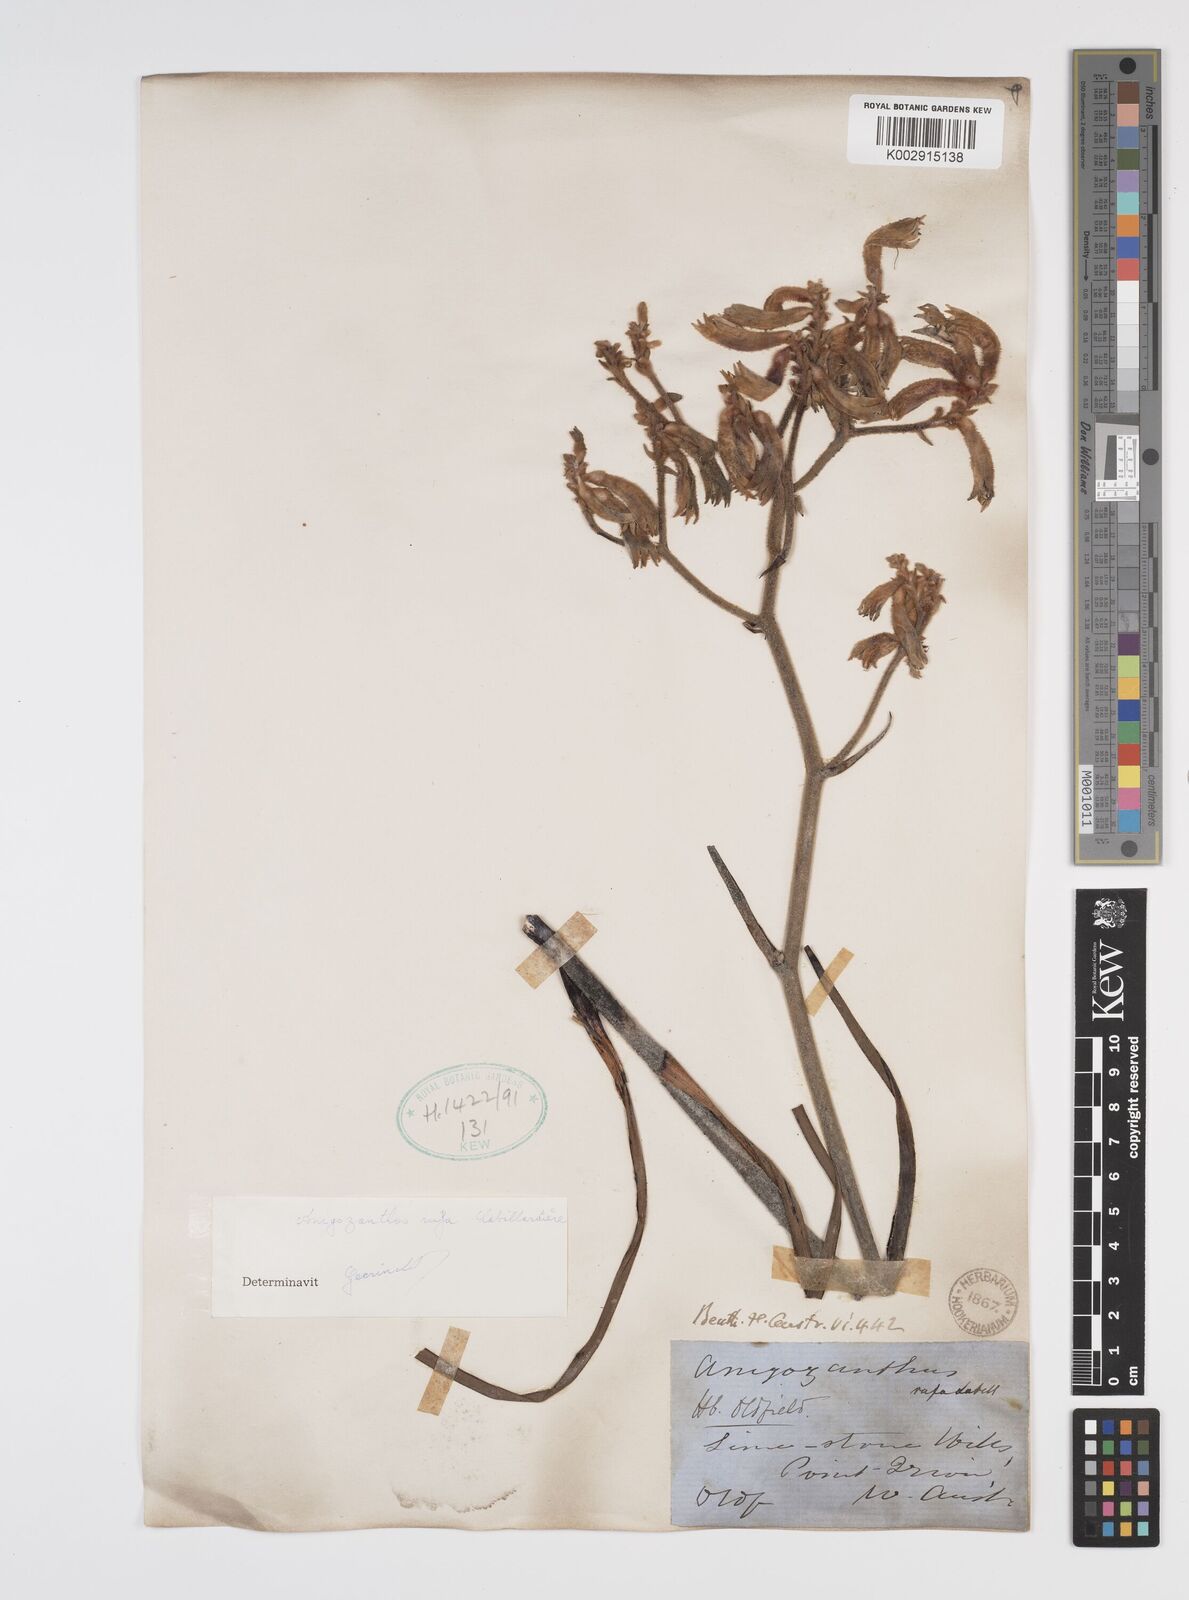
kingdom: Plantae
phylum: Tracheophyta
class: Liliopsida
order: Commelinales
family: Haemodoraceae
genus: Anigozanthos
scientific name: Anigozanthos rufus
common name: Red kangaroo-paw
